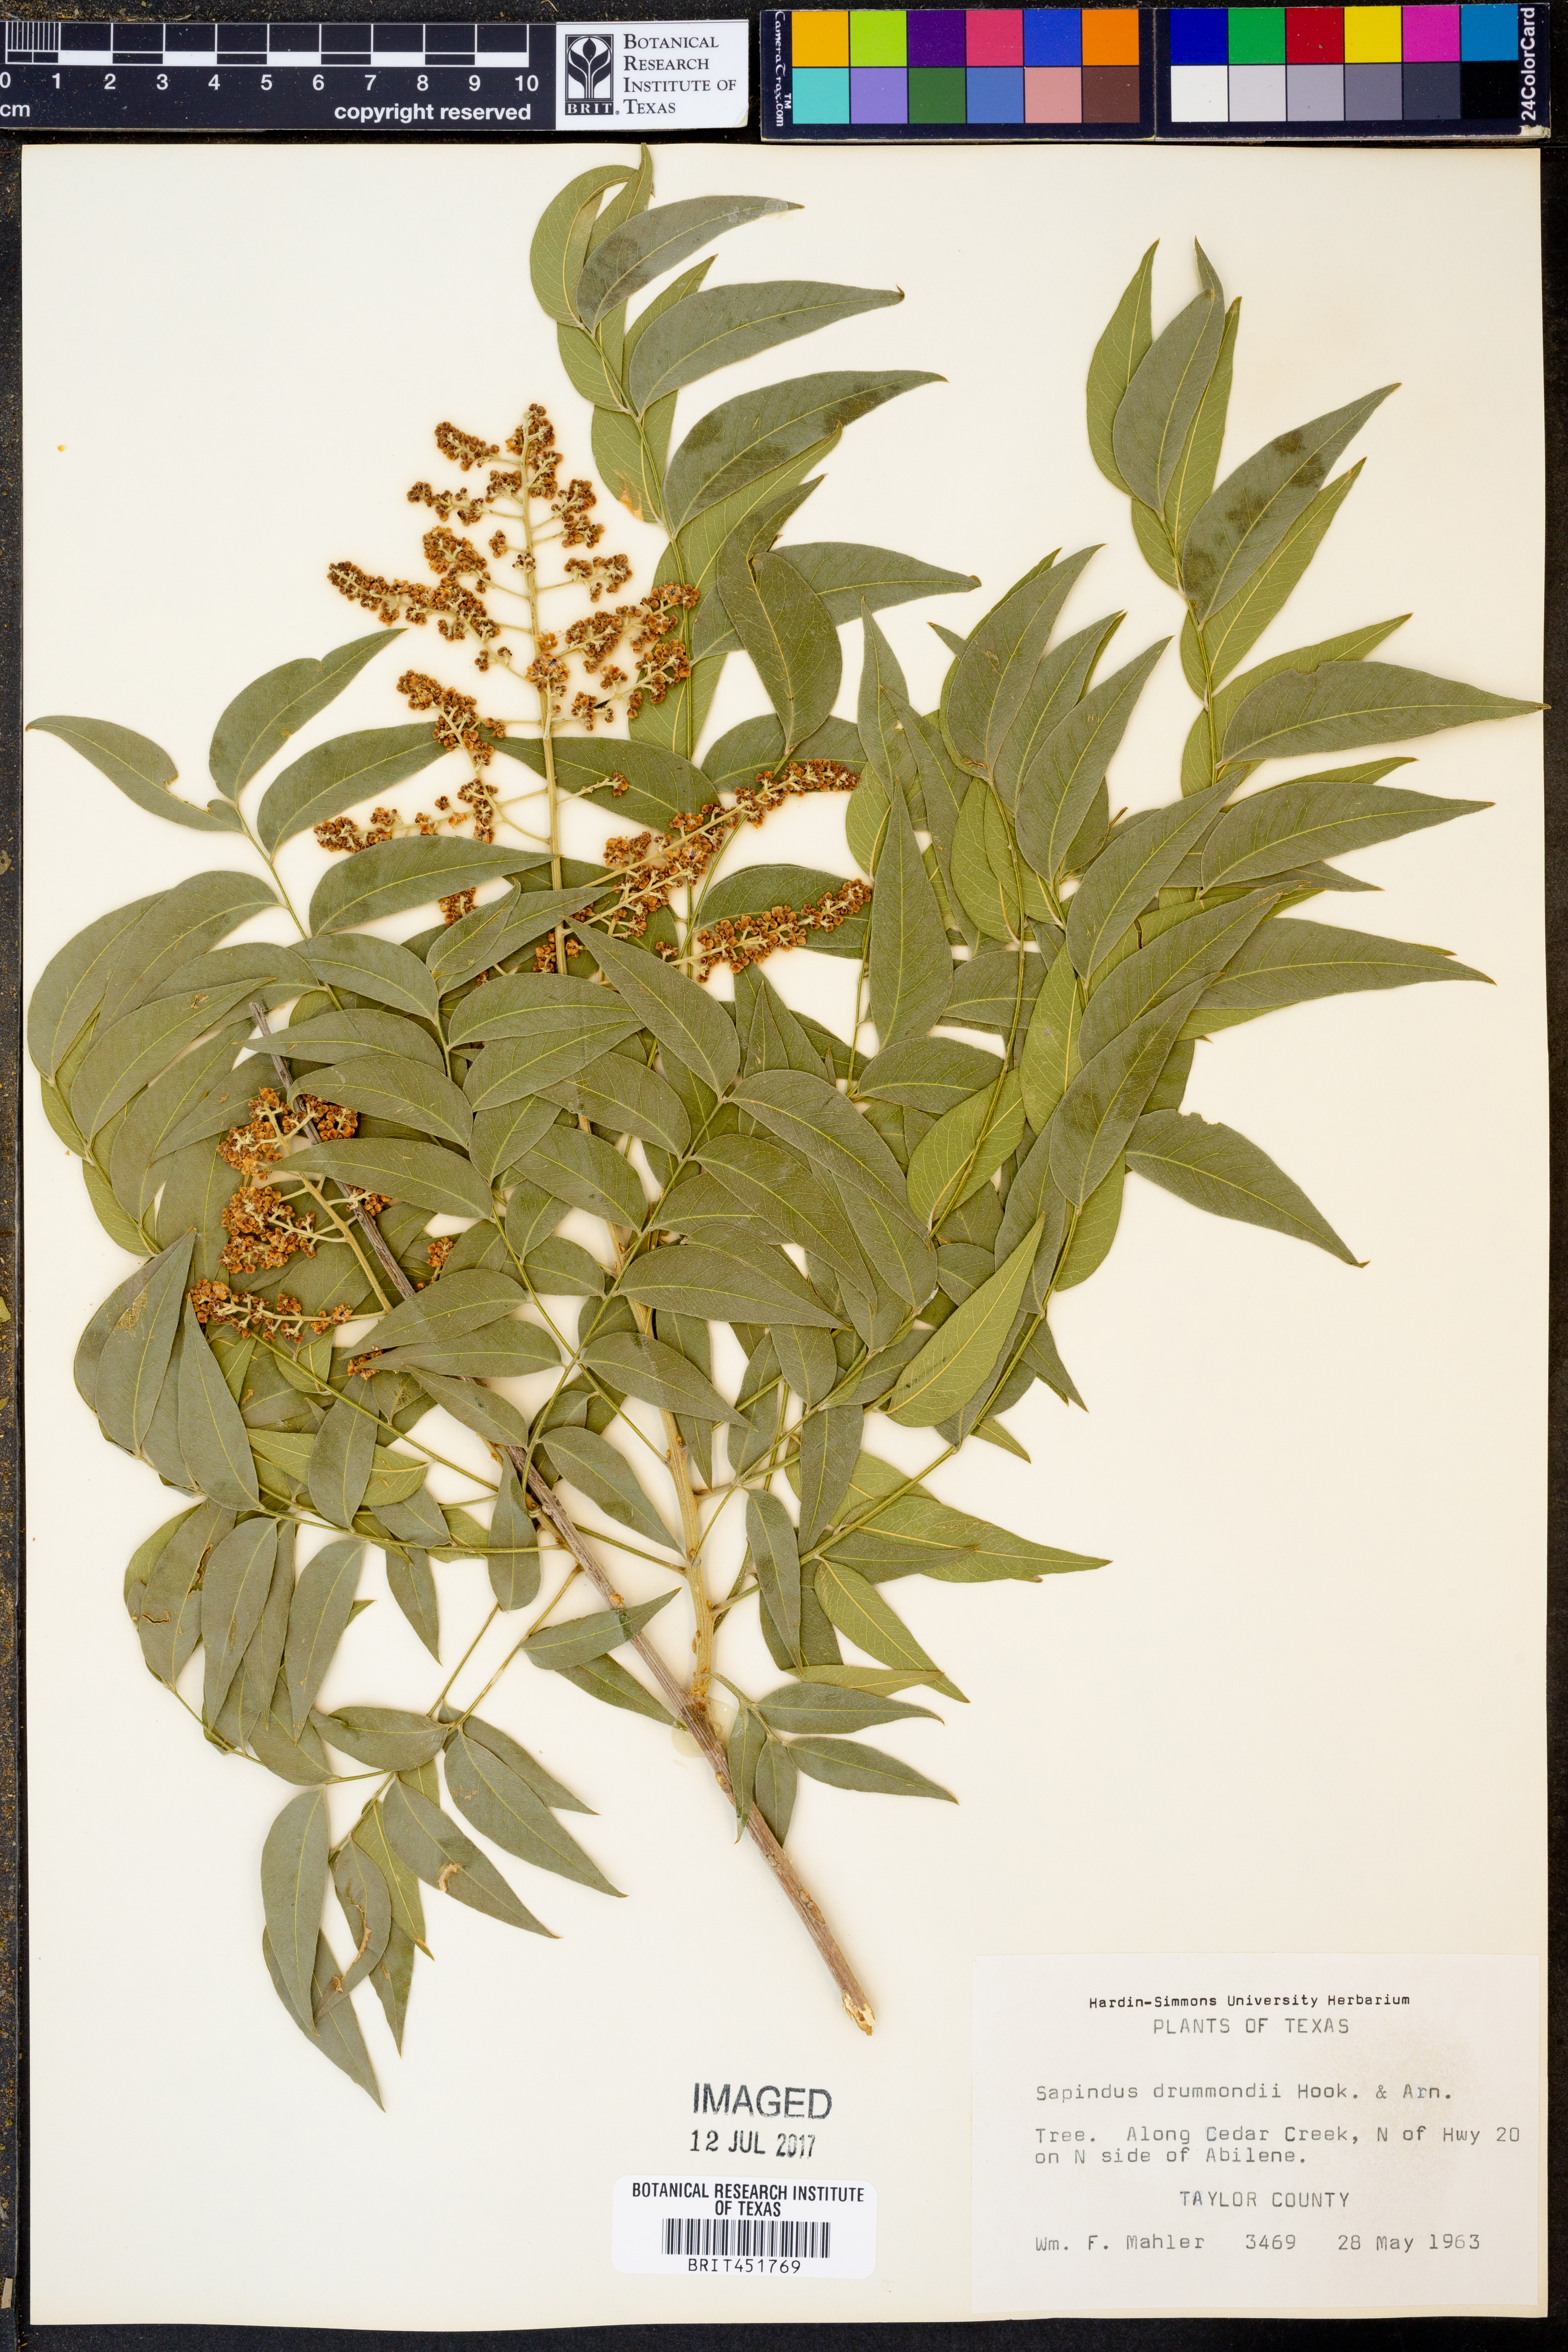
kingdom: Plantae
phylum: Tracheophyta
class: Magnoliopsida
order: Sapindales
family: Sapindaceae
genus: Sapindus
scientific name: Sapindus drummondii
